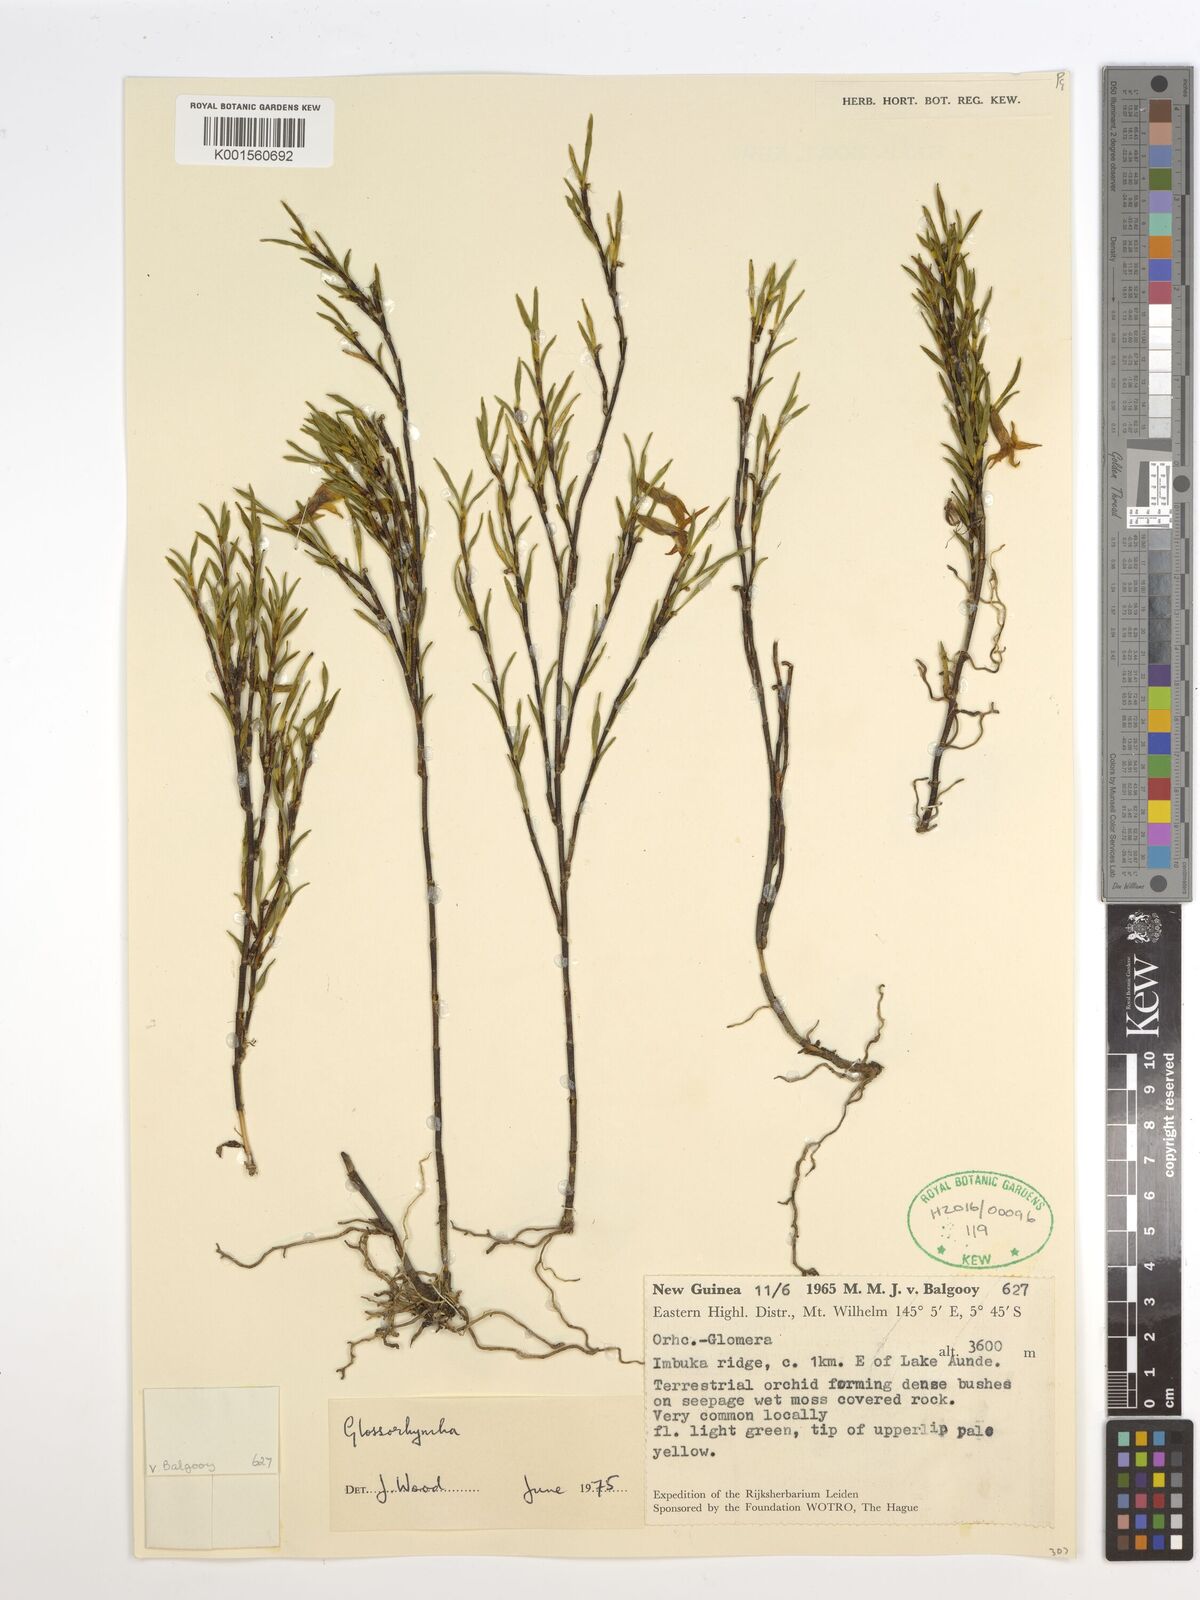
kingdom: Plantae
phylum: Tracheophyta
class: Liliopsida
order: Asparagales
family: Orchidaceae
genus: Glomera
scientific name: Glomera
